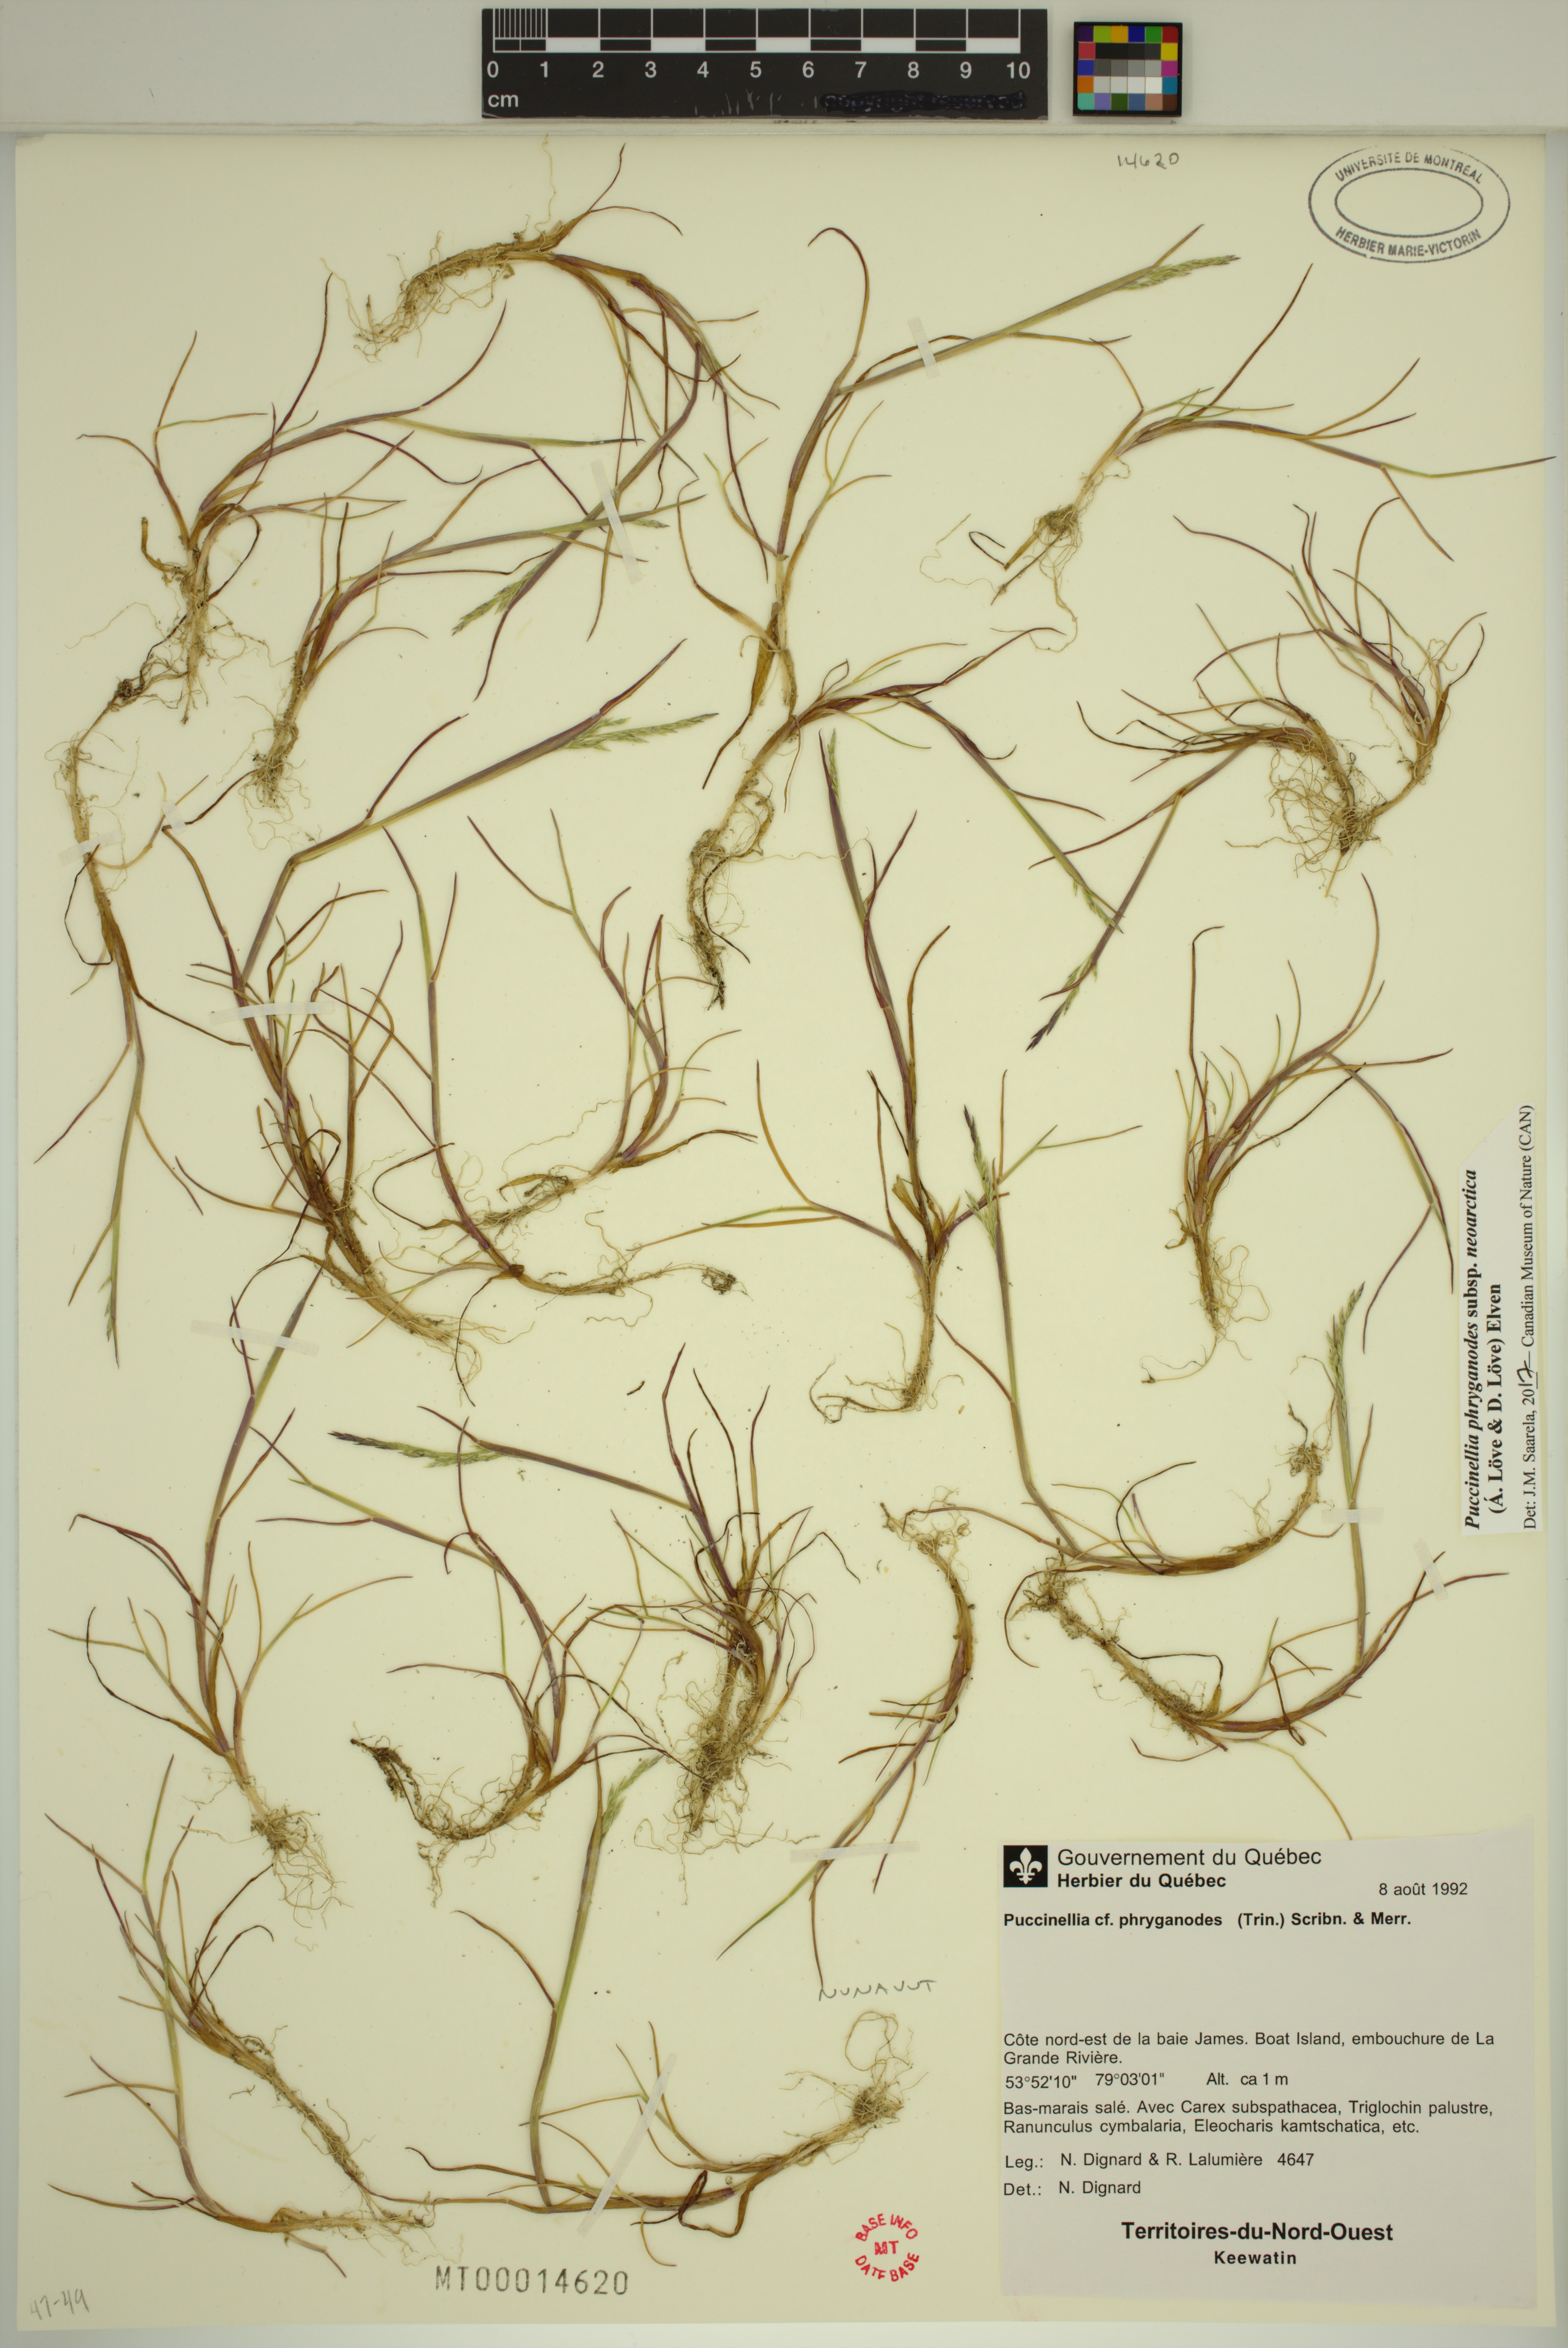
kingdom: Plantae
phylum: Tracheophyta
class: Liliopsida
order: Poales
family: Poaceae
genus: Puccinellia
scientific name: Puccinellia phryganodes
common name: Creeping alkaligrass
